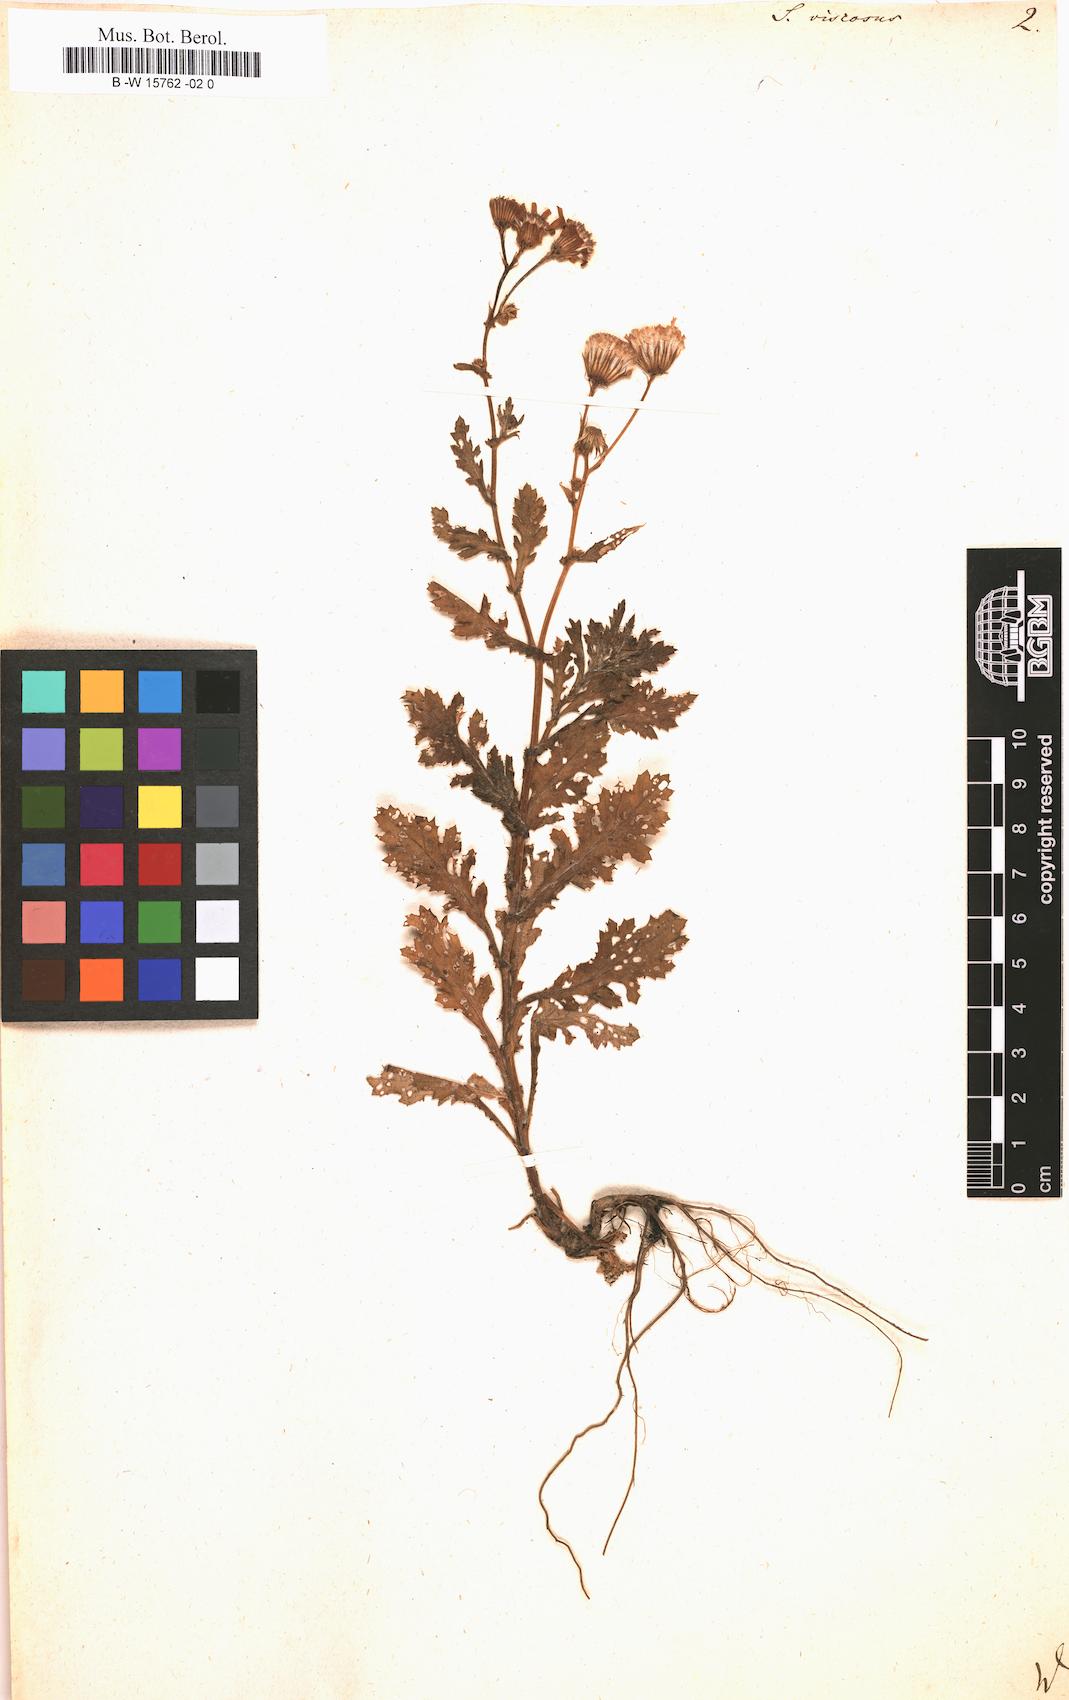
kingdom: Plantae
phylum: Tracheophyta
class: Magnoliopsida
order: Asterales
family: Asteraceae
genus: Senecio
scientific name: Senecio viscosus
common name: Sticky groundsel
